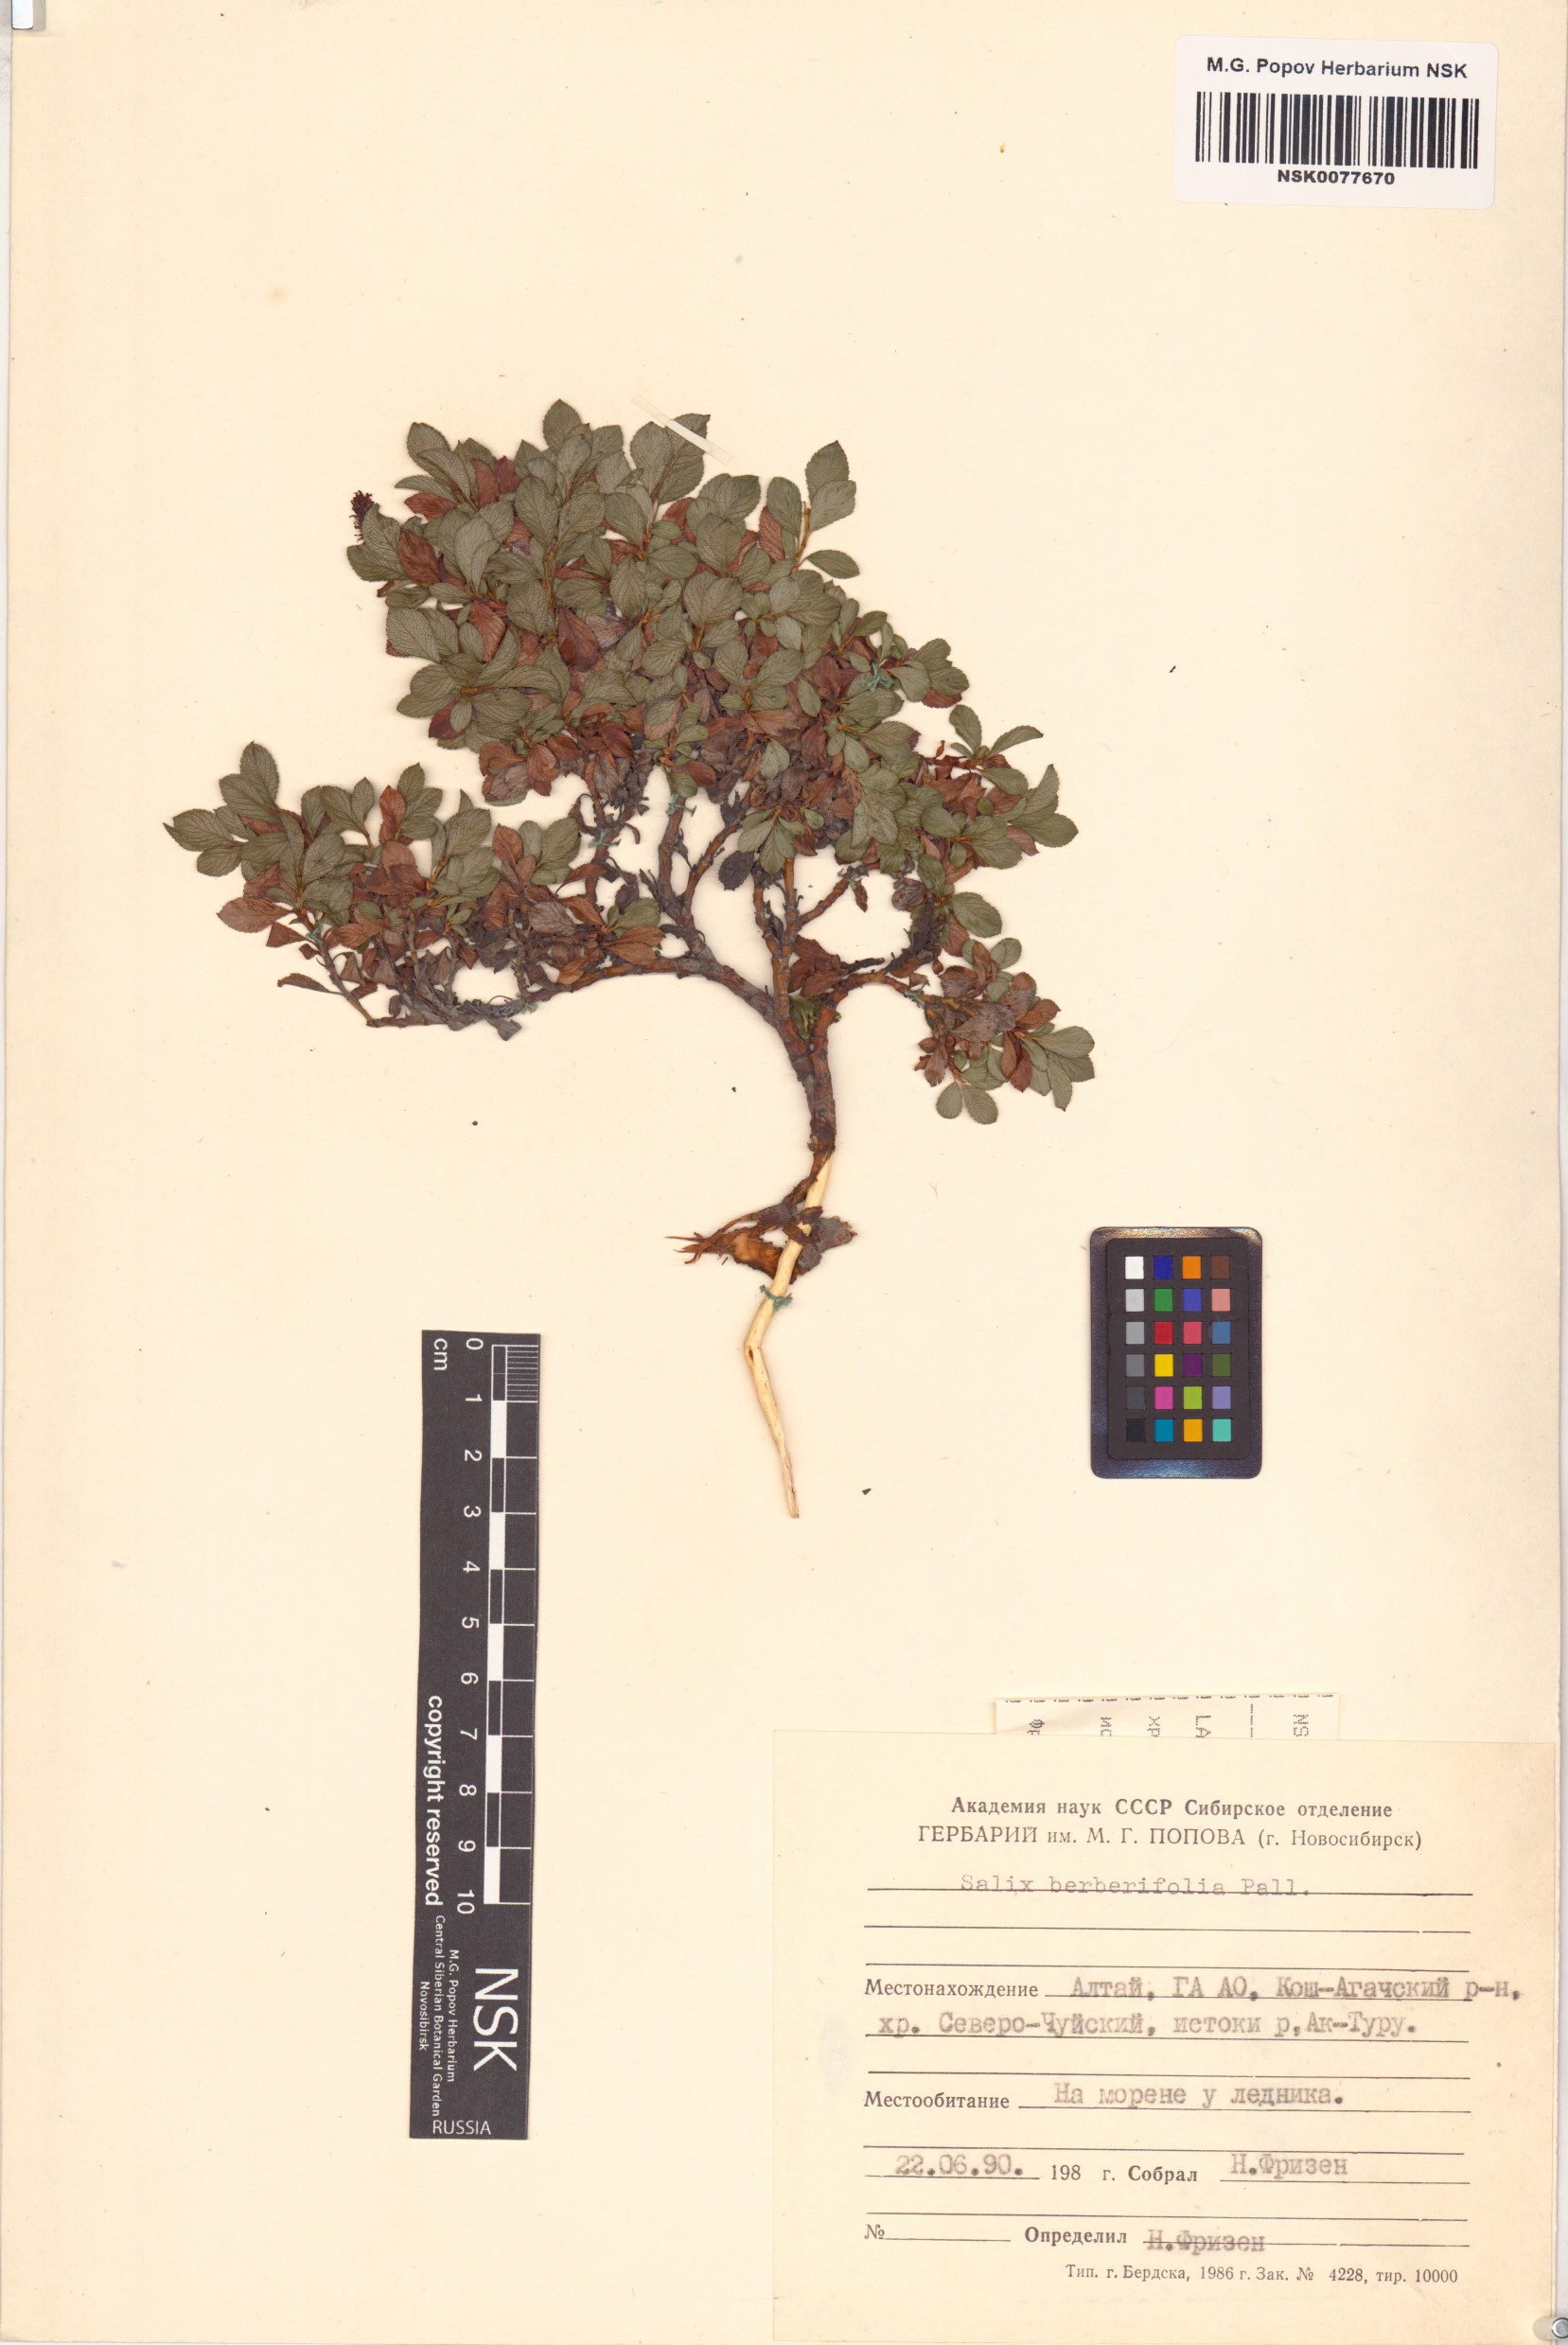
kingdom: Plantae
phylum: Tracheophyta
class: Magnoliopsida
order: Malpighiales
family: Salicaceae
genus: Salix
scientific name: Salix berberifolia
